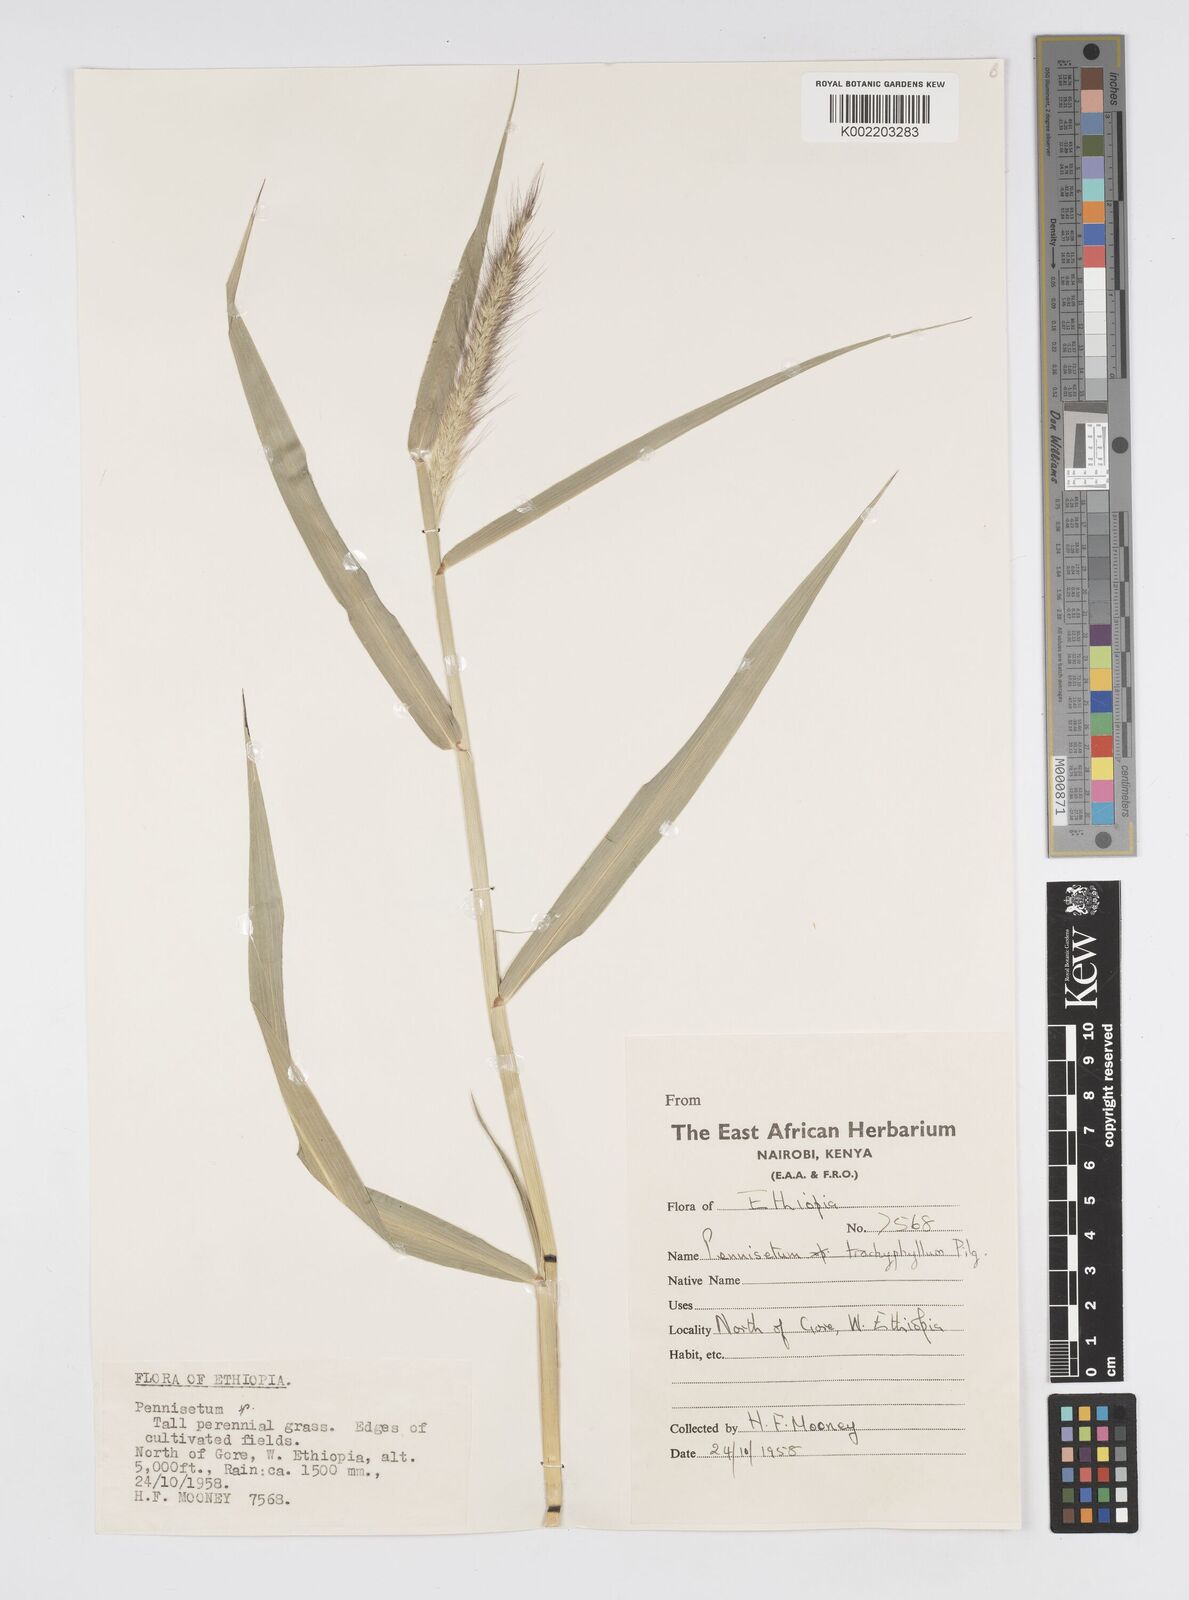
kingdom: Plantae
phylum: Tracheophyta
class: Liliopsida
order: Poales
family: Poaceae
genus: Cenchrus
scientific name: Cenchrus trachyphyllus
